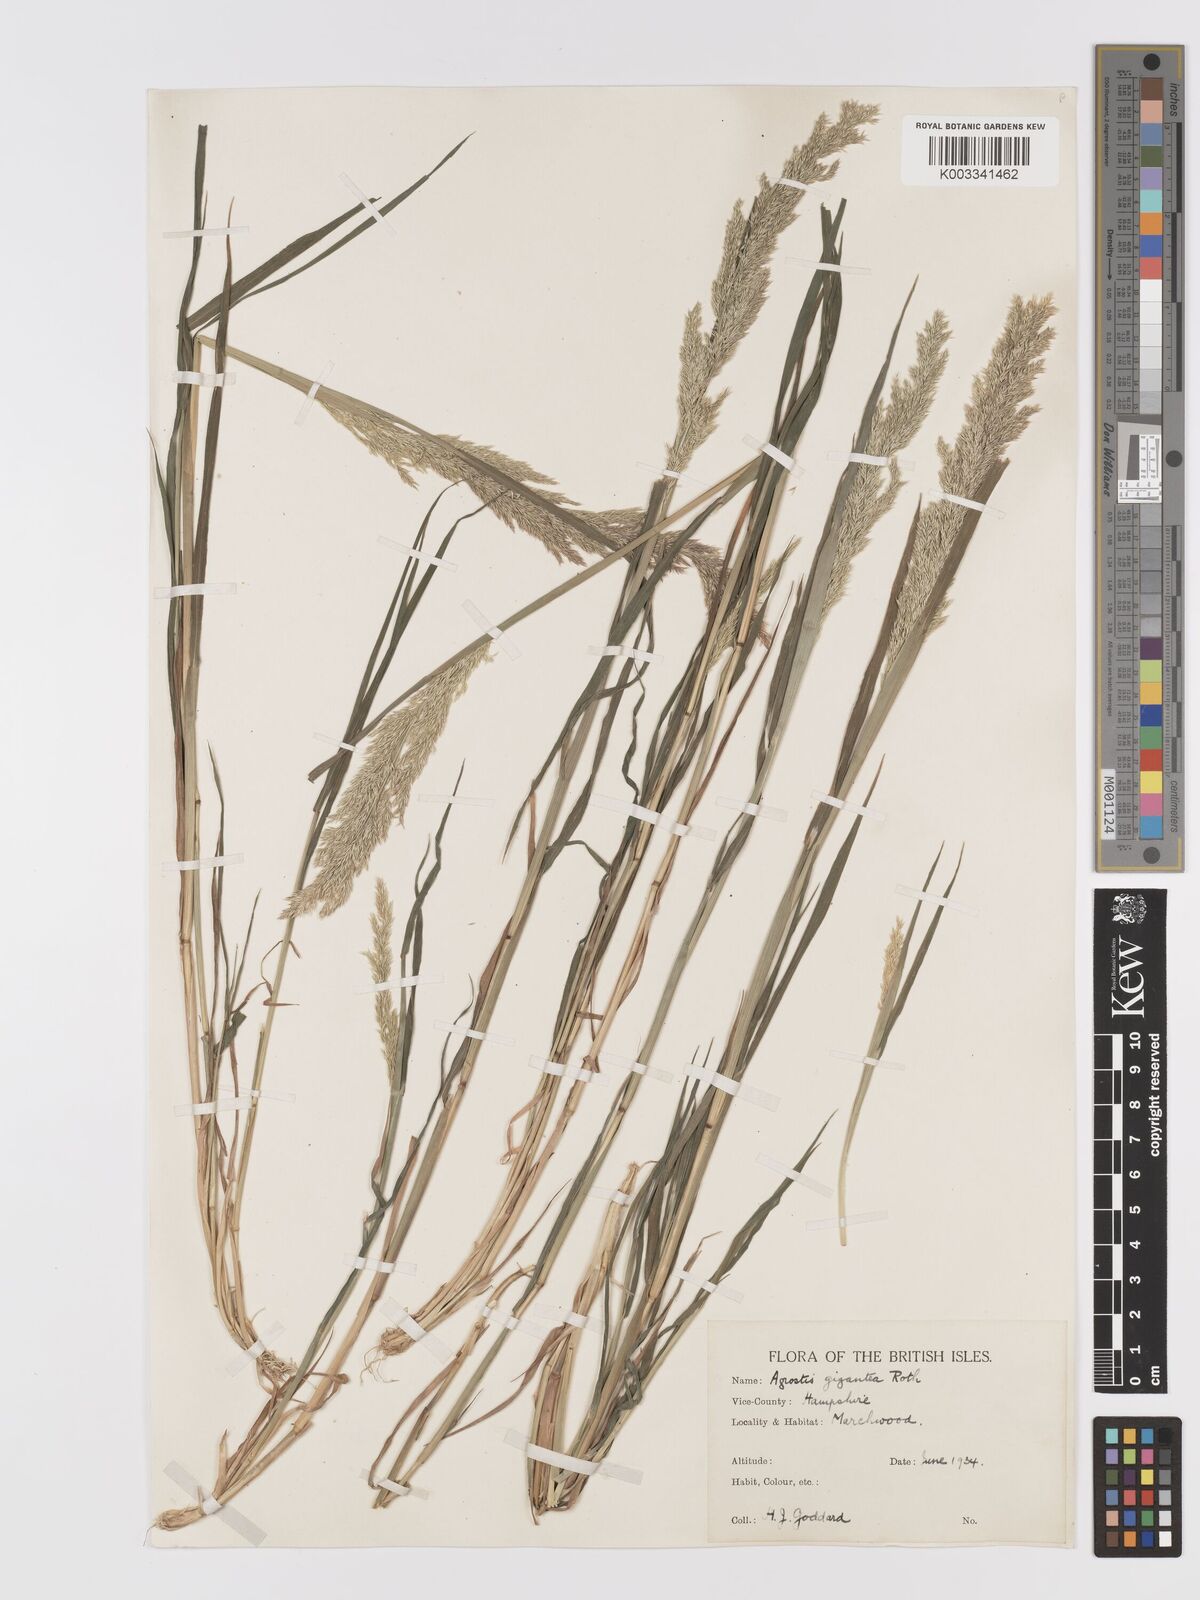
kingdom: Plantae
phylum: Tracheophyta
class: Liliopsida
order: Poales
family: Poaceae
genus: Agrostis
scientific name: Agrostis stolonifera
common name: Creeping bentgrass
